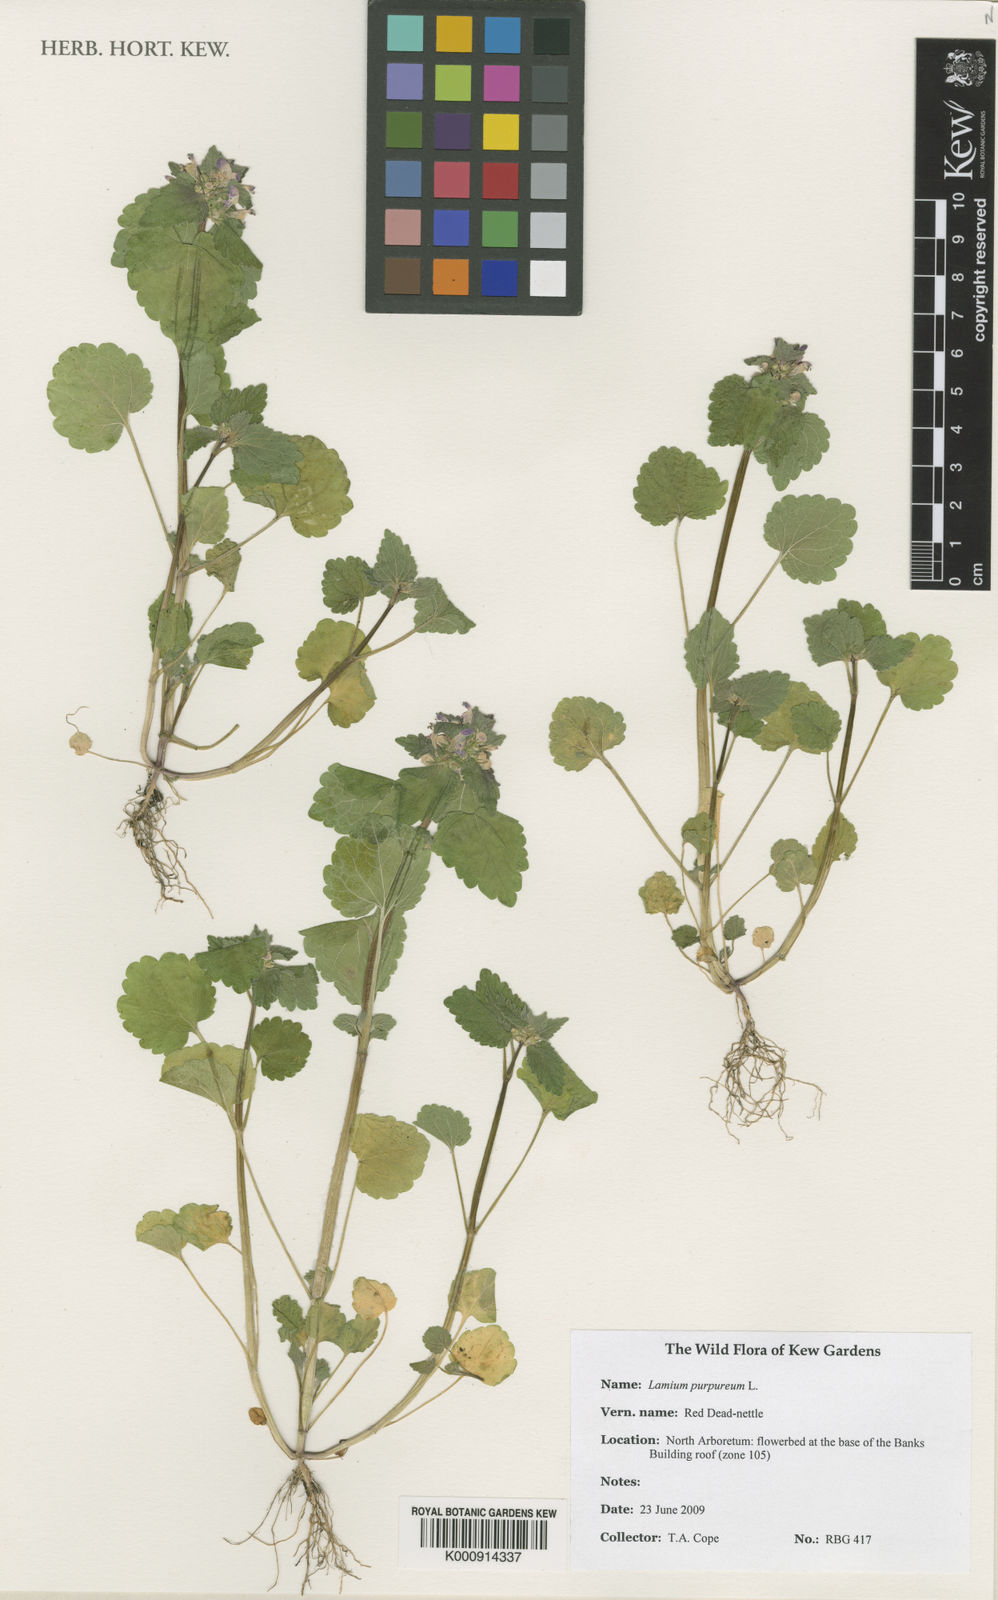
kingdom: Plantae
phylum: Tracheophyta
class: Magnoliopsida
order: Lamiales
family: Lamiaceae
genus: Lamium
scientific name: Lamium purpureum
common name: Red dead-nettle
